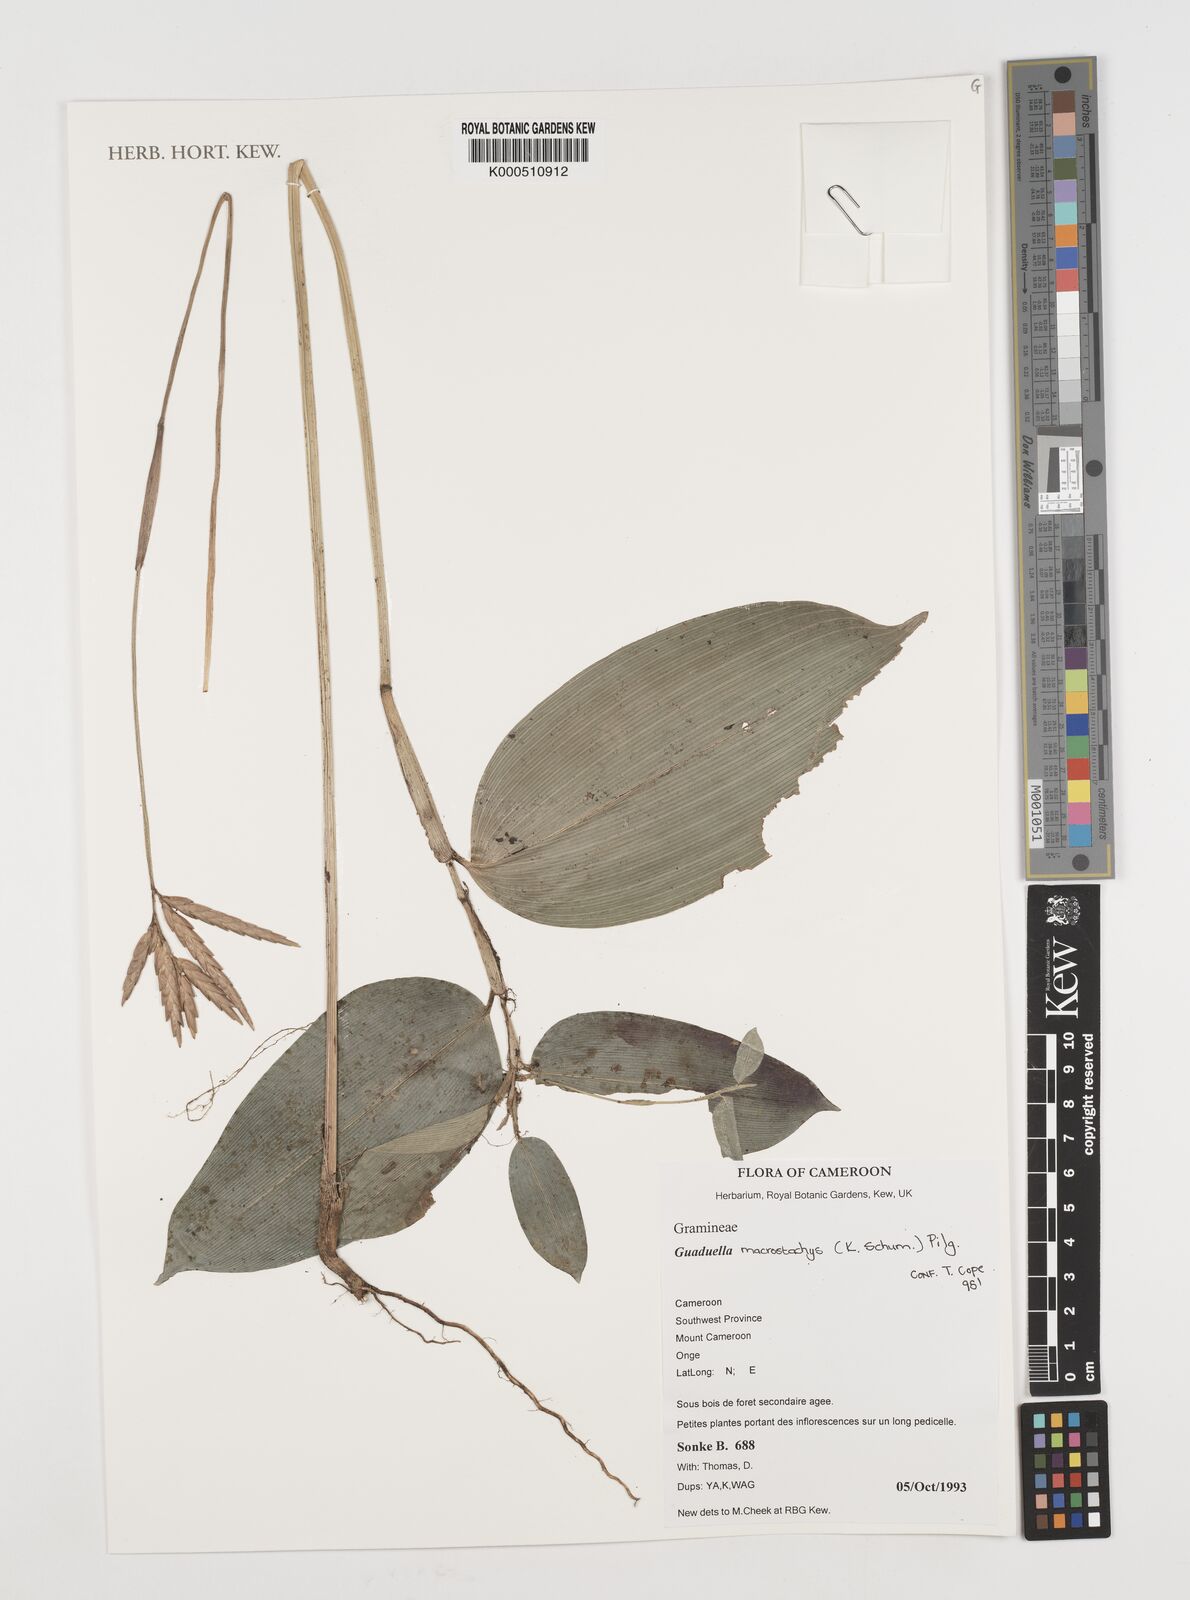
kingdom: Plantae
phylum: Tracheophyta
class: Liliopsida
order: Poales
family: Poaceae
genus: Guaduella
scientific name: Guaduella macrostachys
